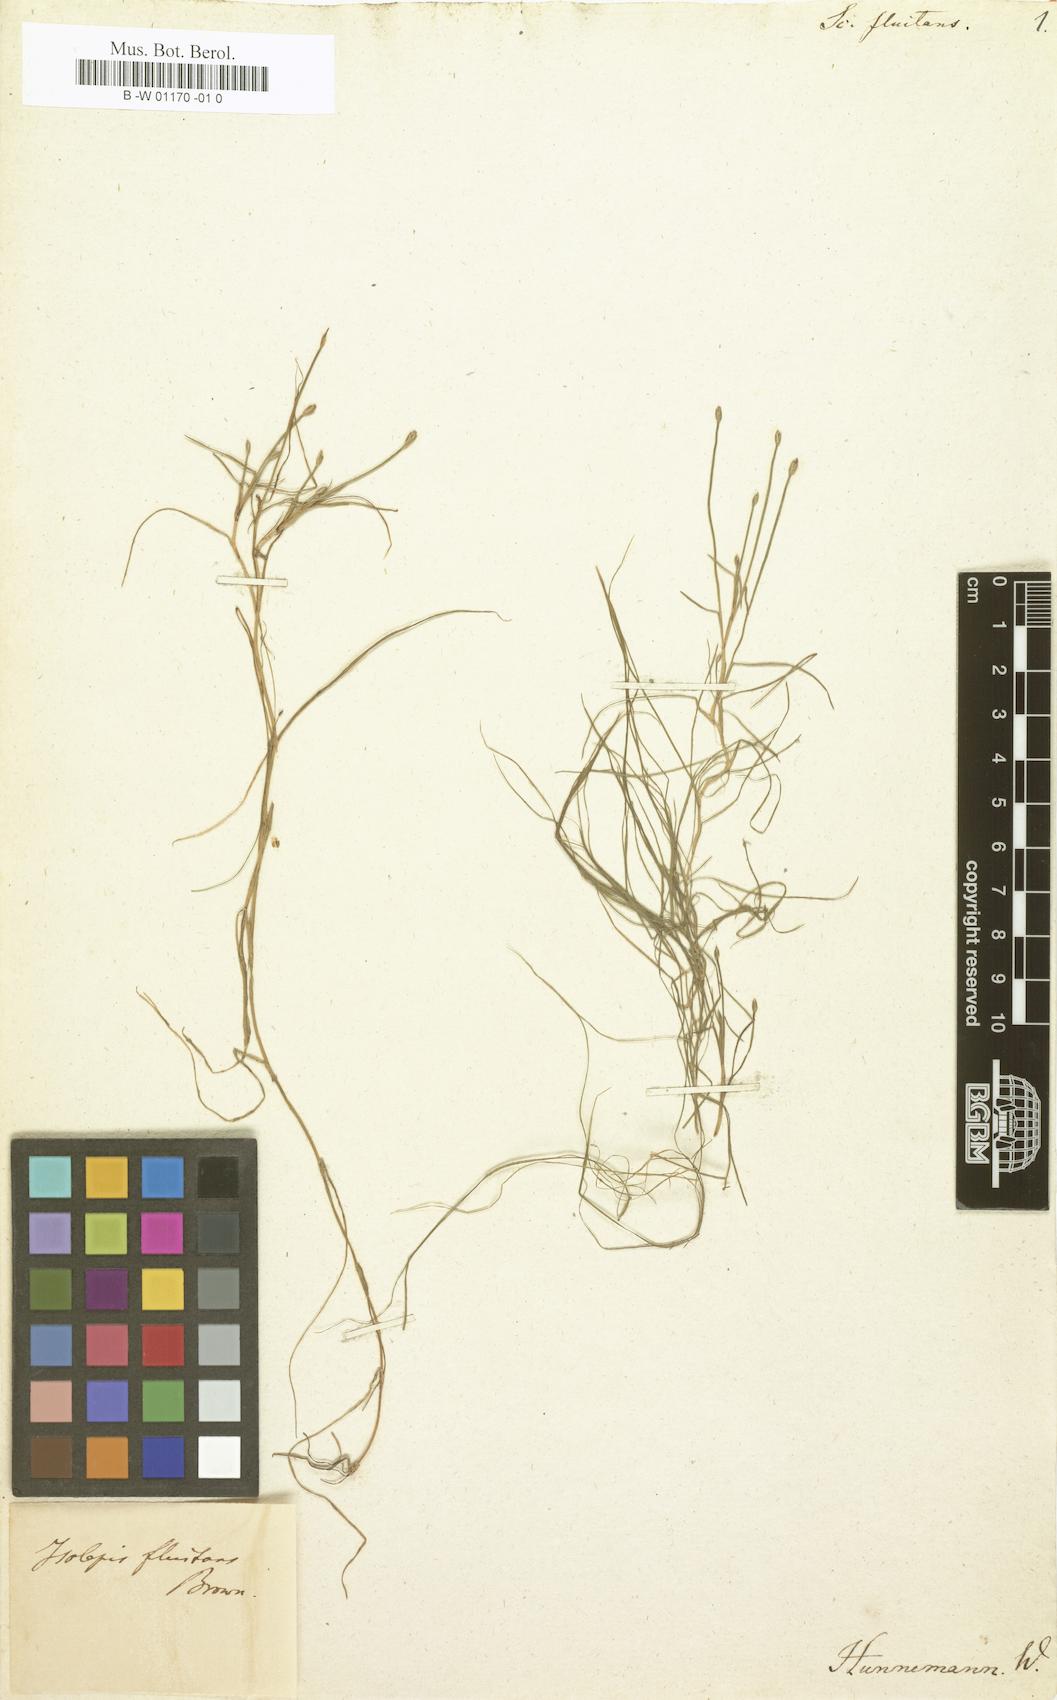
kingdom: Plantae
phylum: Tracheophyta
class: Liliopsida
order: Poales
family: Cyperaceae
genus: Isolepis
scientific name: Isolepis fluitans
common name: Floating club-rush
